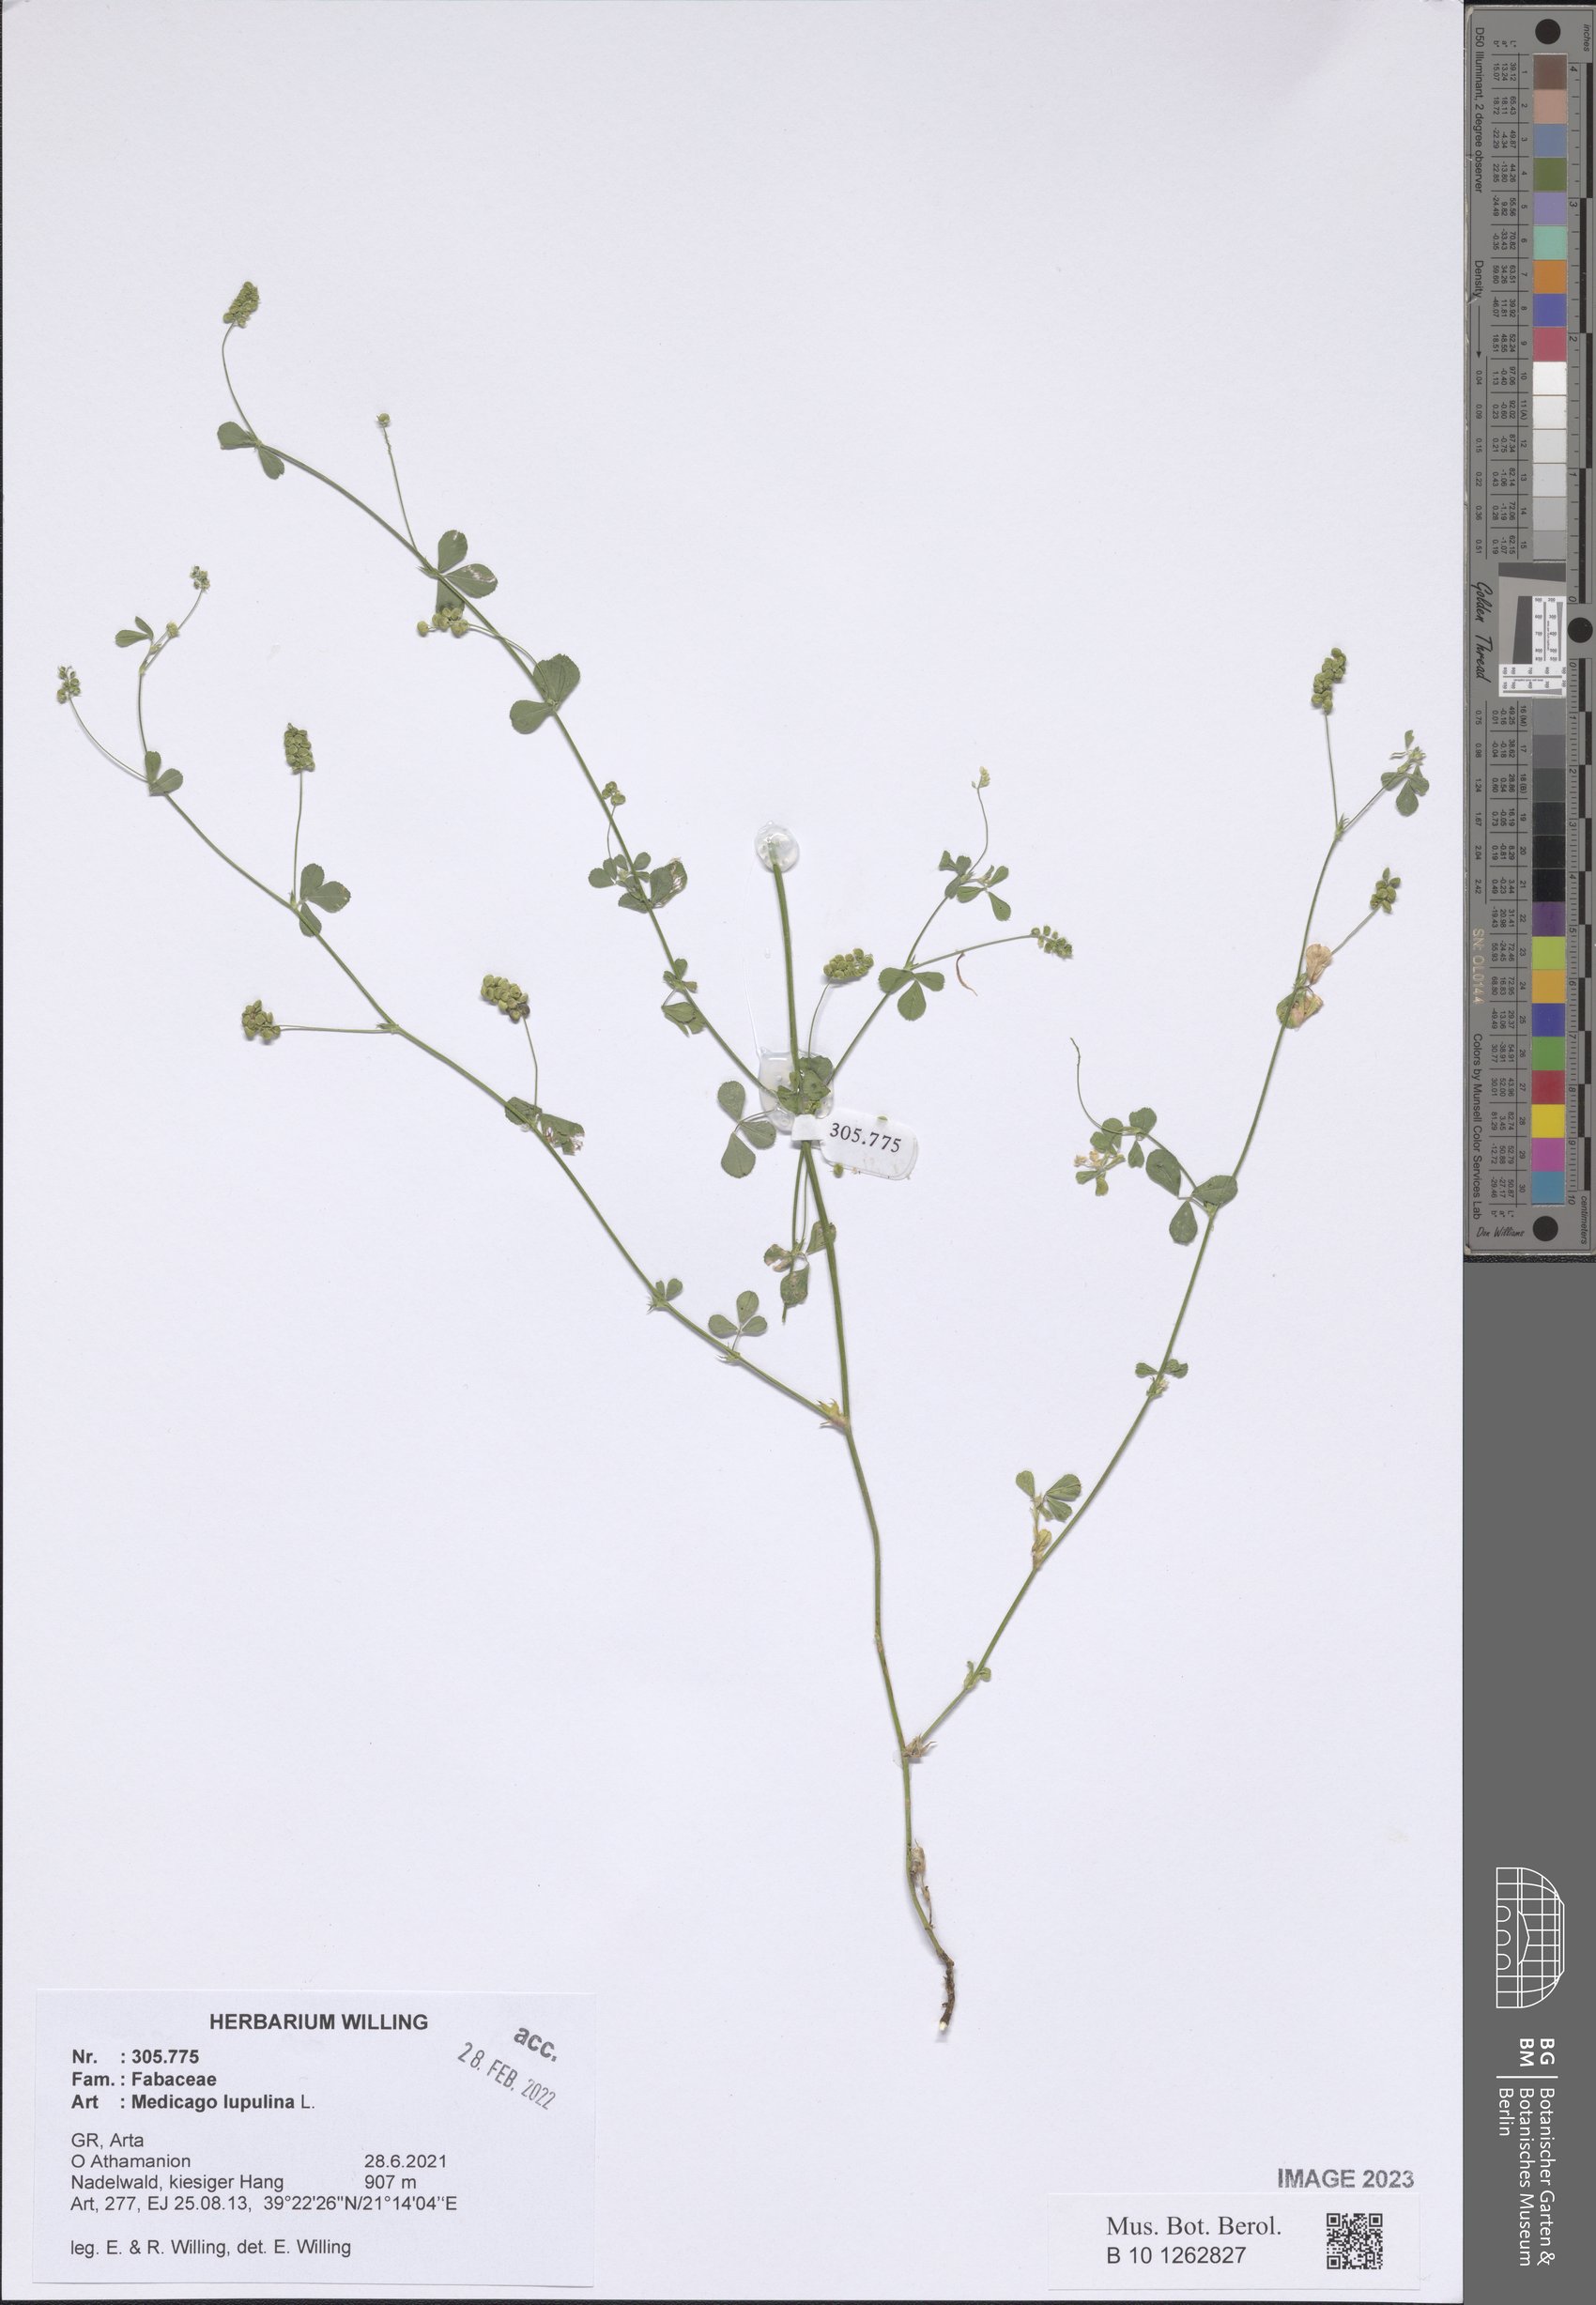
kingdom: Plantae
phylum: Tracheophyta
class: Magnoliopsida
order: Fabales
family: Fabaceae
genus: Medicago
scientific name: Medicago lupulina
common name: Black medick
